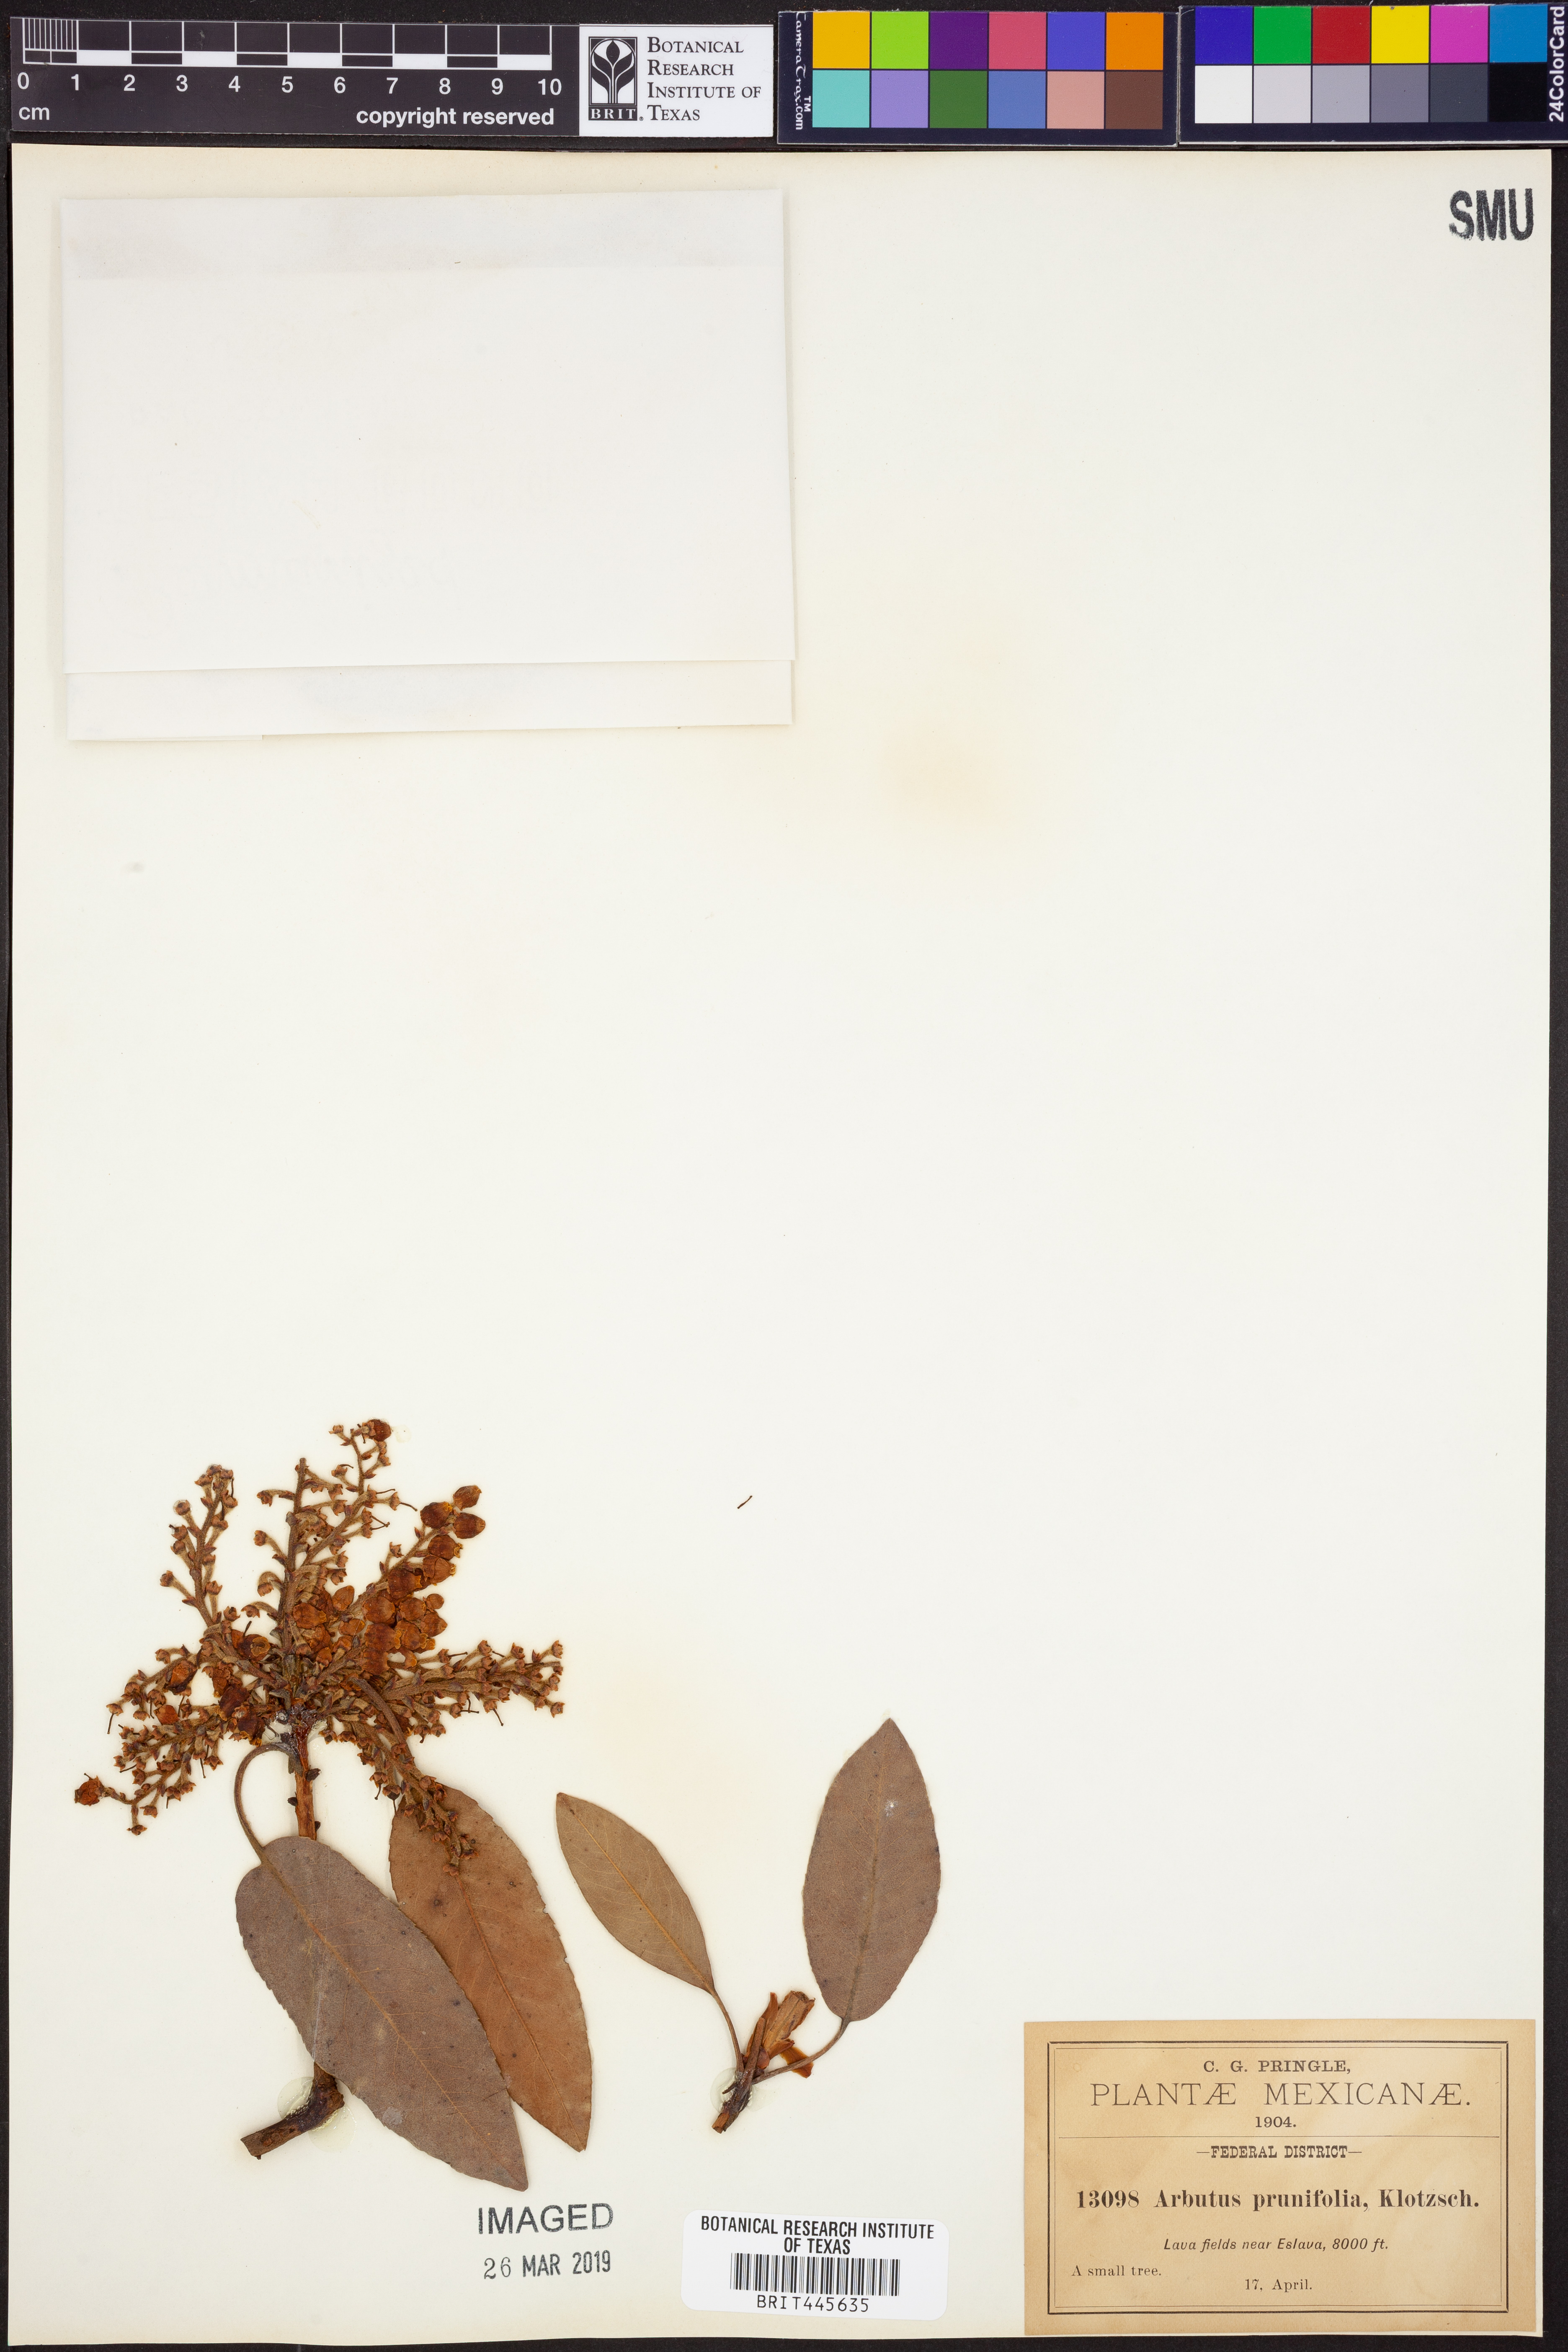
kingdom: Plantae
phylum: Tracheophyta
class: Magnoliopsida
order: Ericales
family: Ericaceae
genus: Arbutus
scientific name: Arbutus xalapensis
